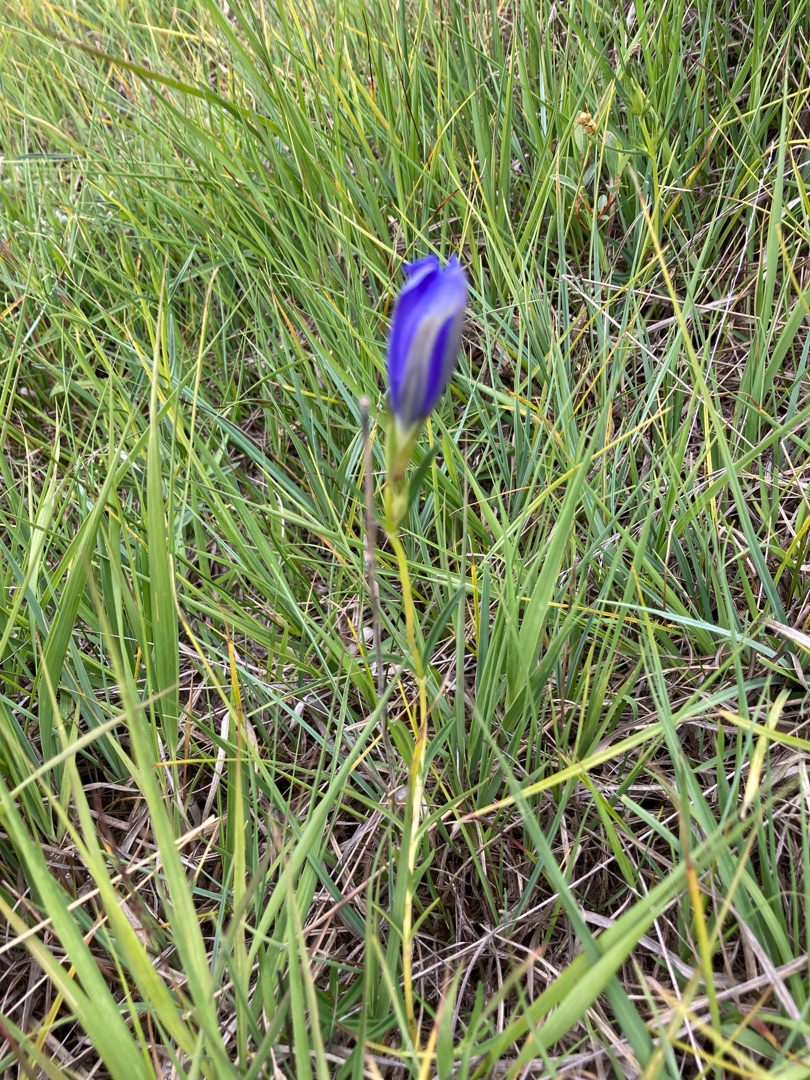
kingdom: Plantae
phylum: Tracheophyta
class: Magnoliopsida
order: Gentianales
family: Gentianaceae
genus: Gentiana
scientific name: Gentiana pneumonanthe
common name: Klokke-ensian
